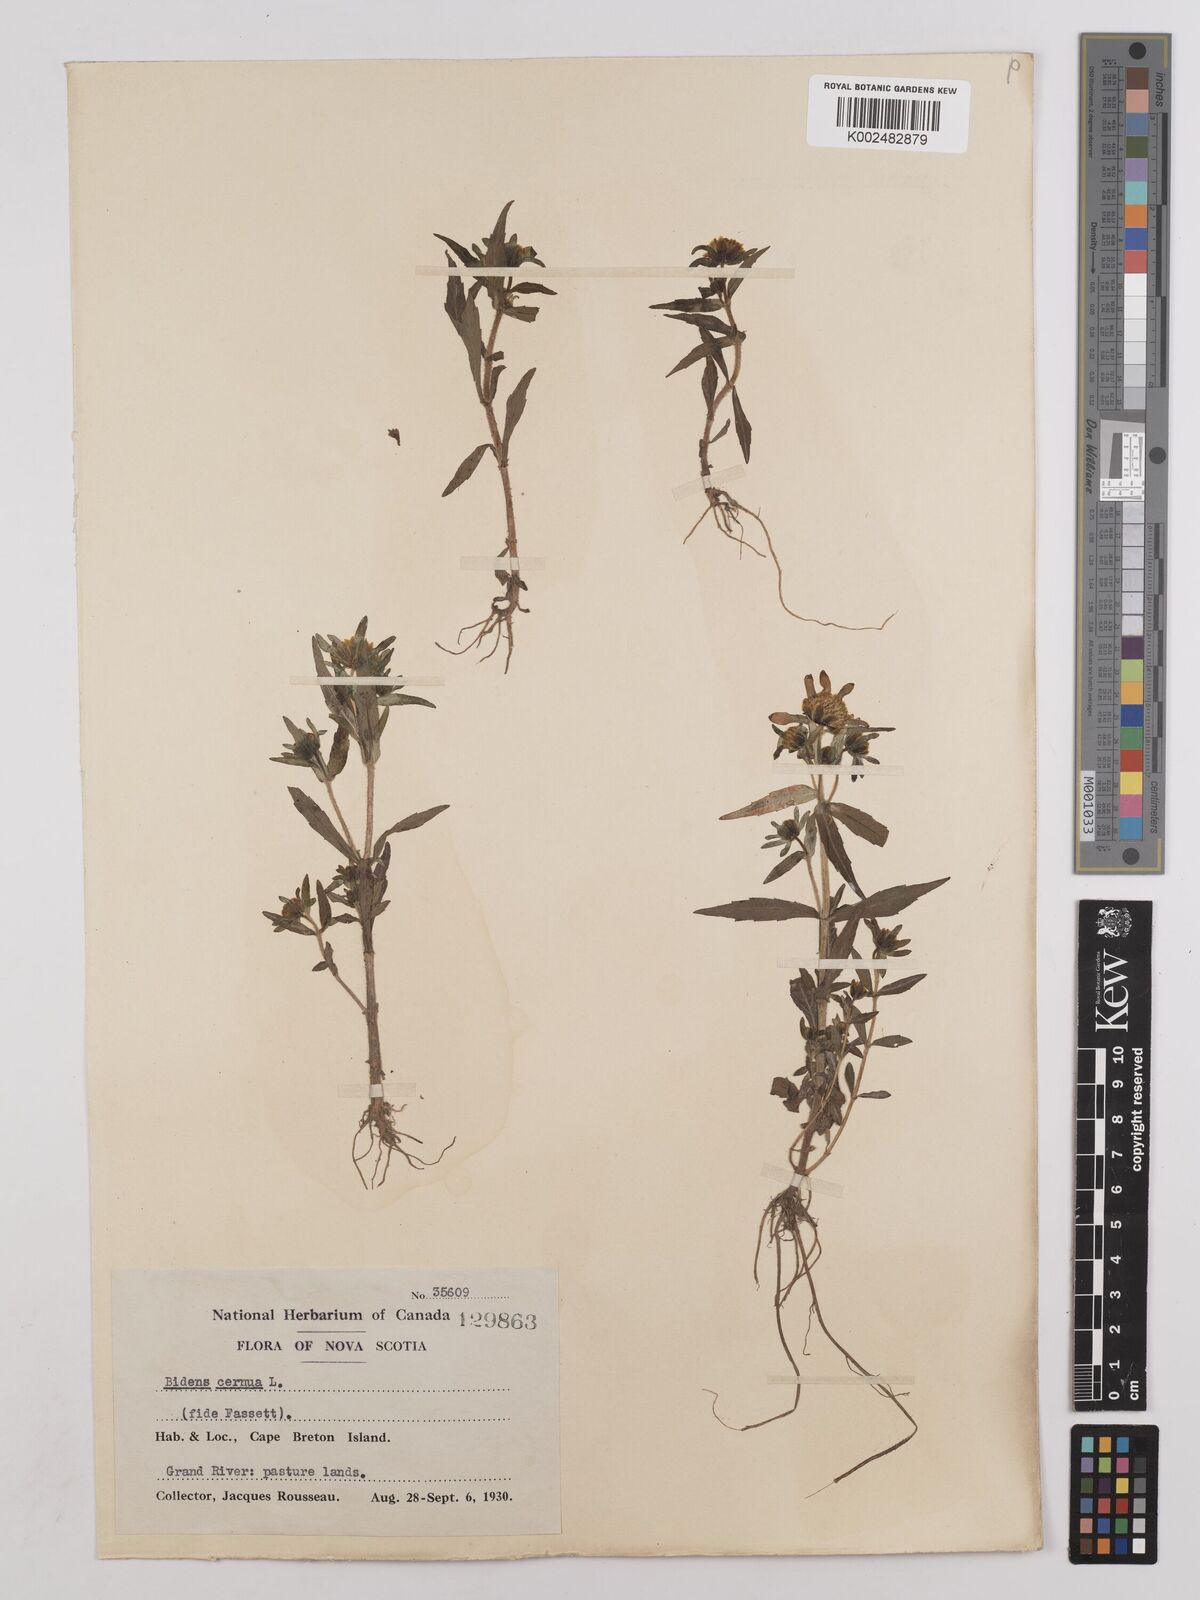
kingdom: Plantae
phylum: Tracheophyta
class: Magnoliopsida
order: Asterales
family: Asteraceae
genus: Bidens
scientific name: Bidens
